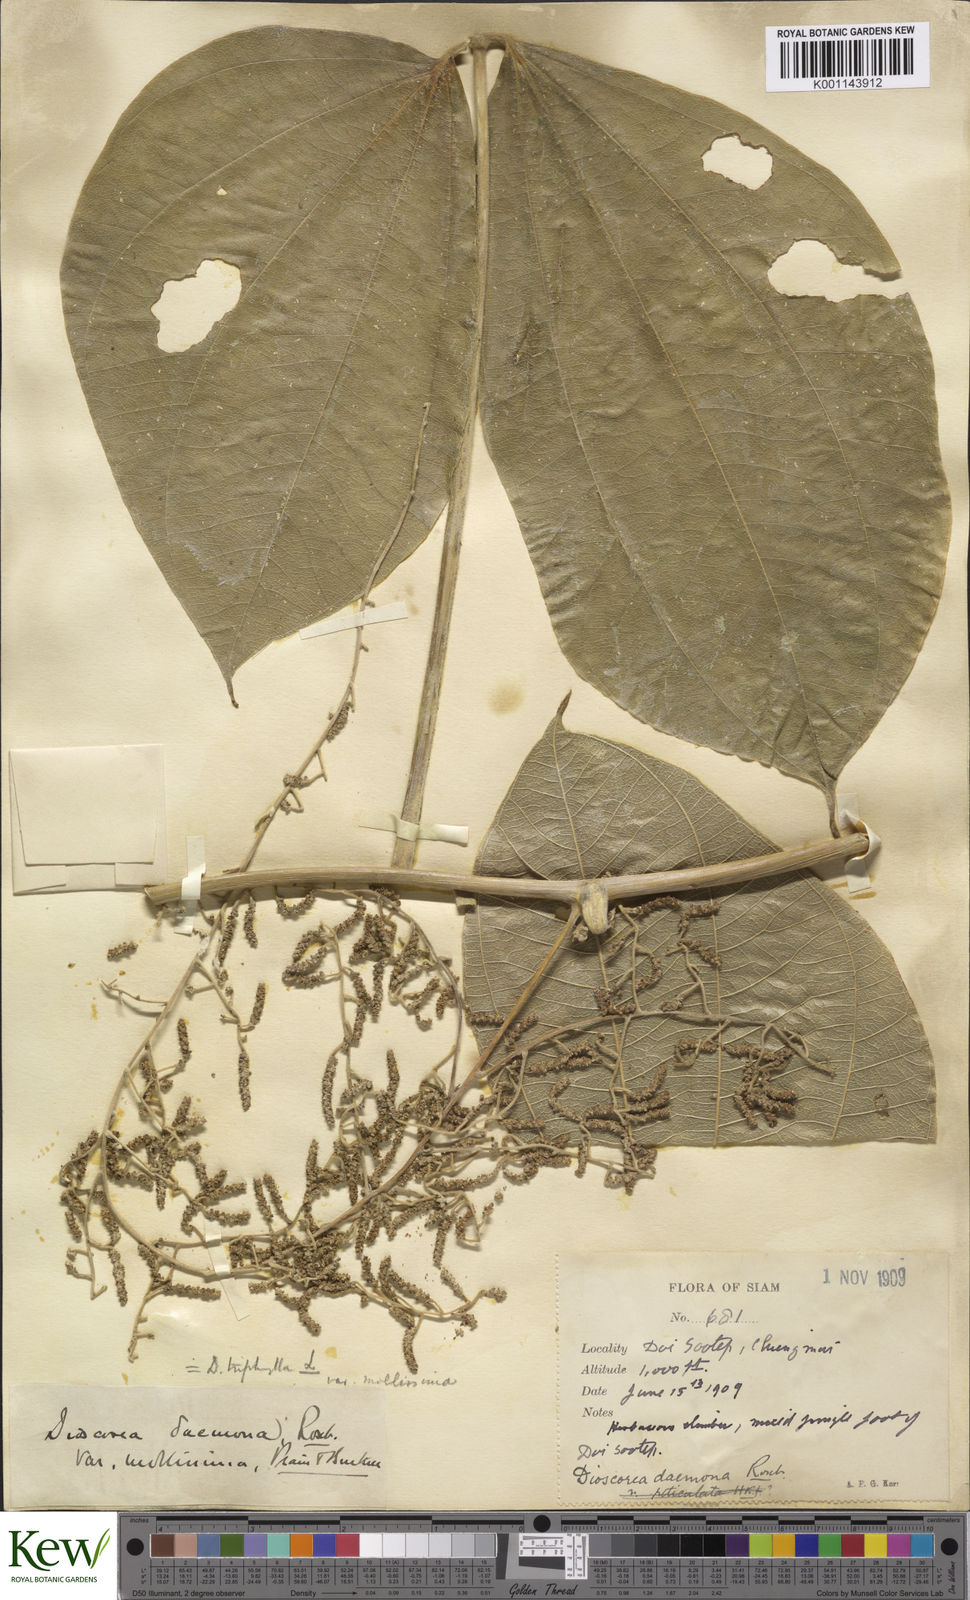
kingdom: Plantae
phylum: Tracheophyta
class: Liliopsida
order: Dioscoreales
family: Dioscoreaceae
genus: Dioscorea
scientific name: Dioscorea hispida
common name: Asiatic bitter yam
